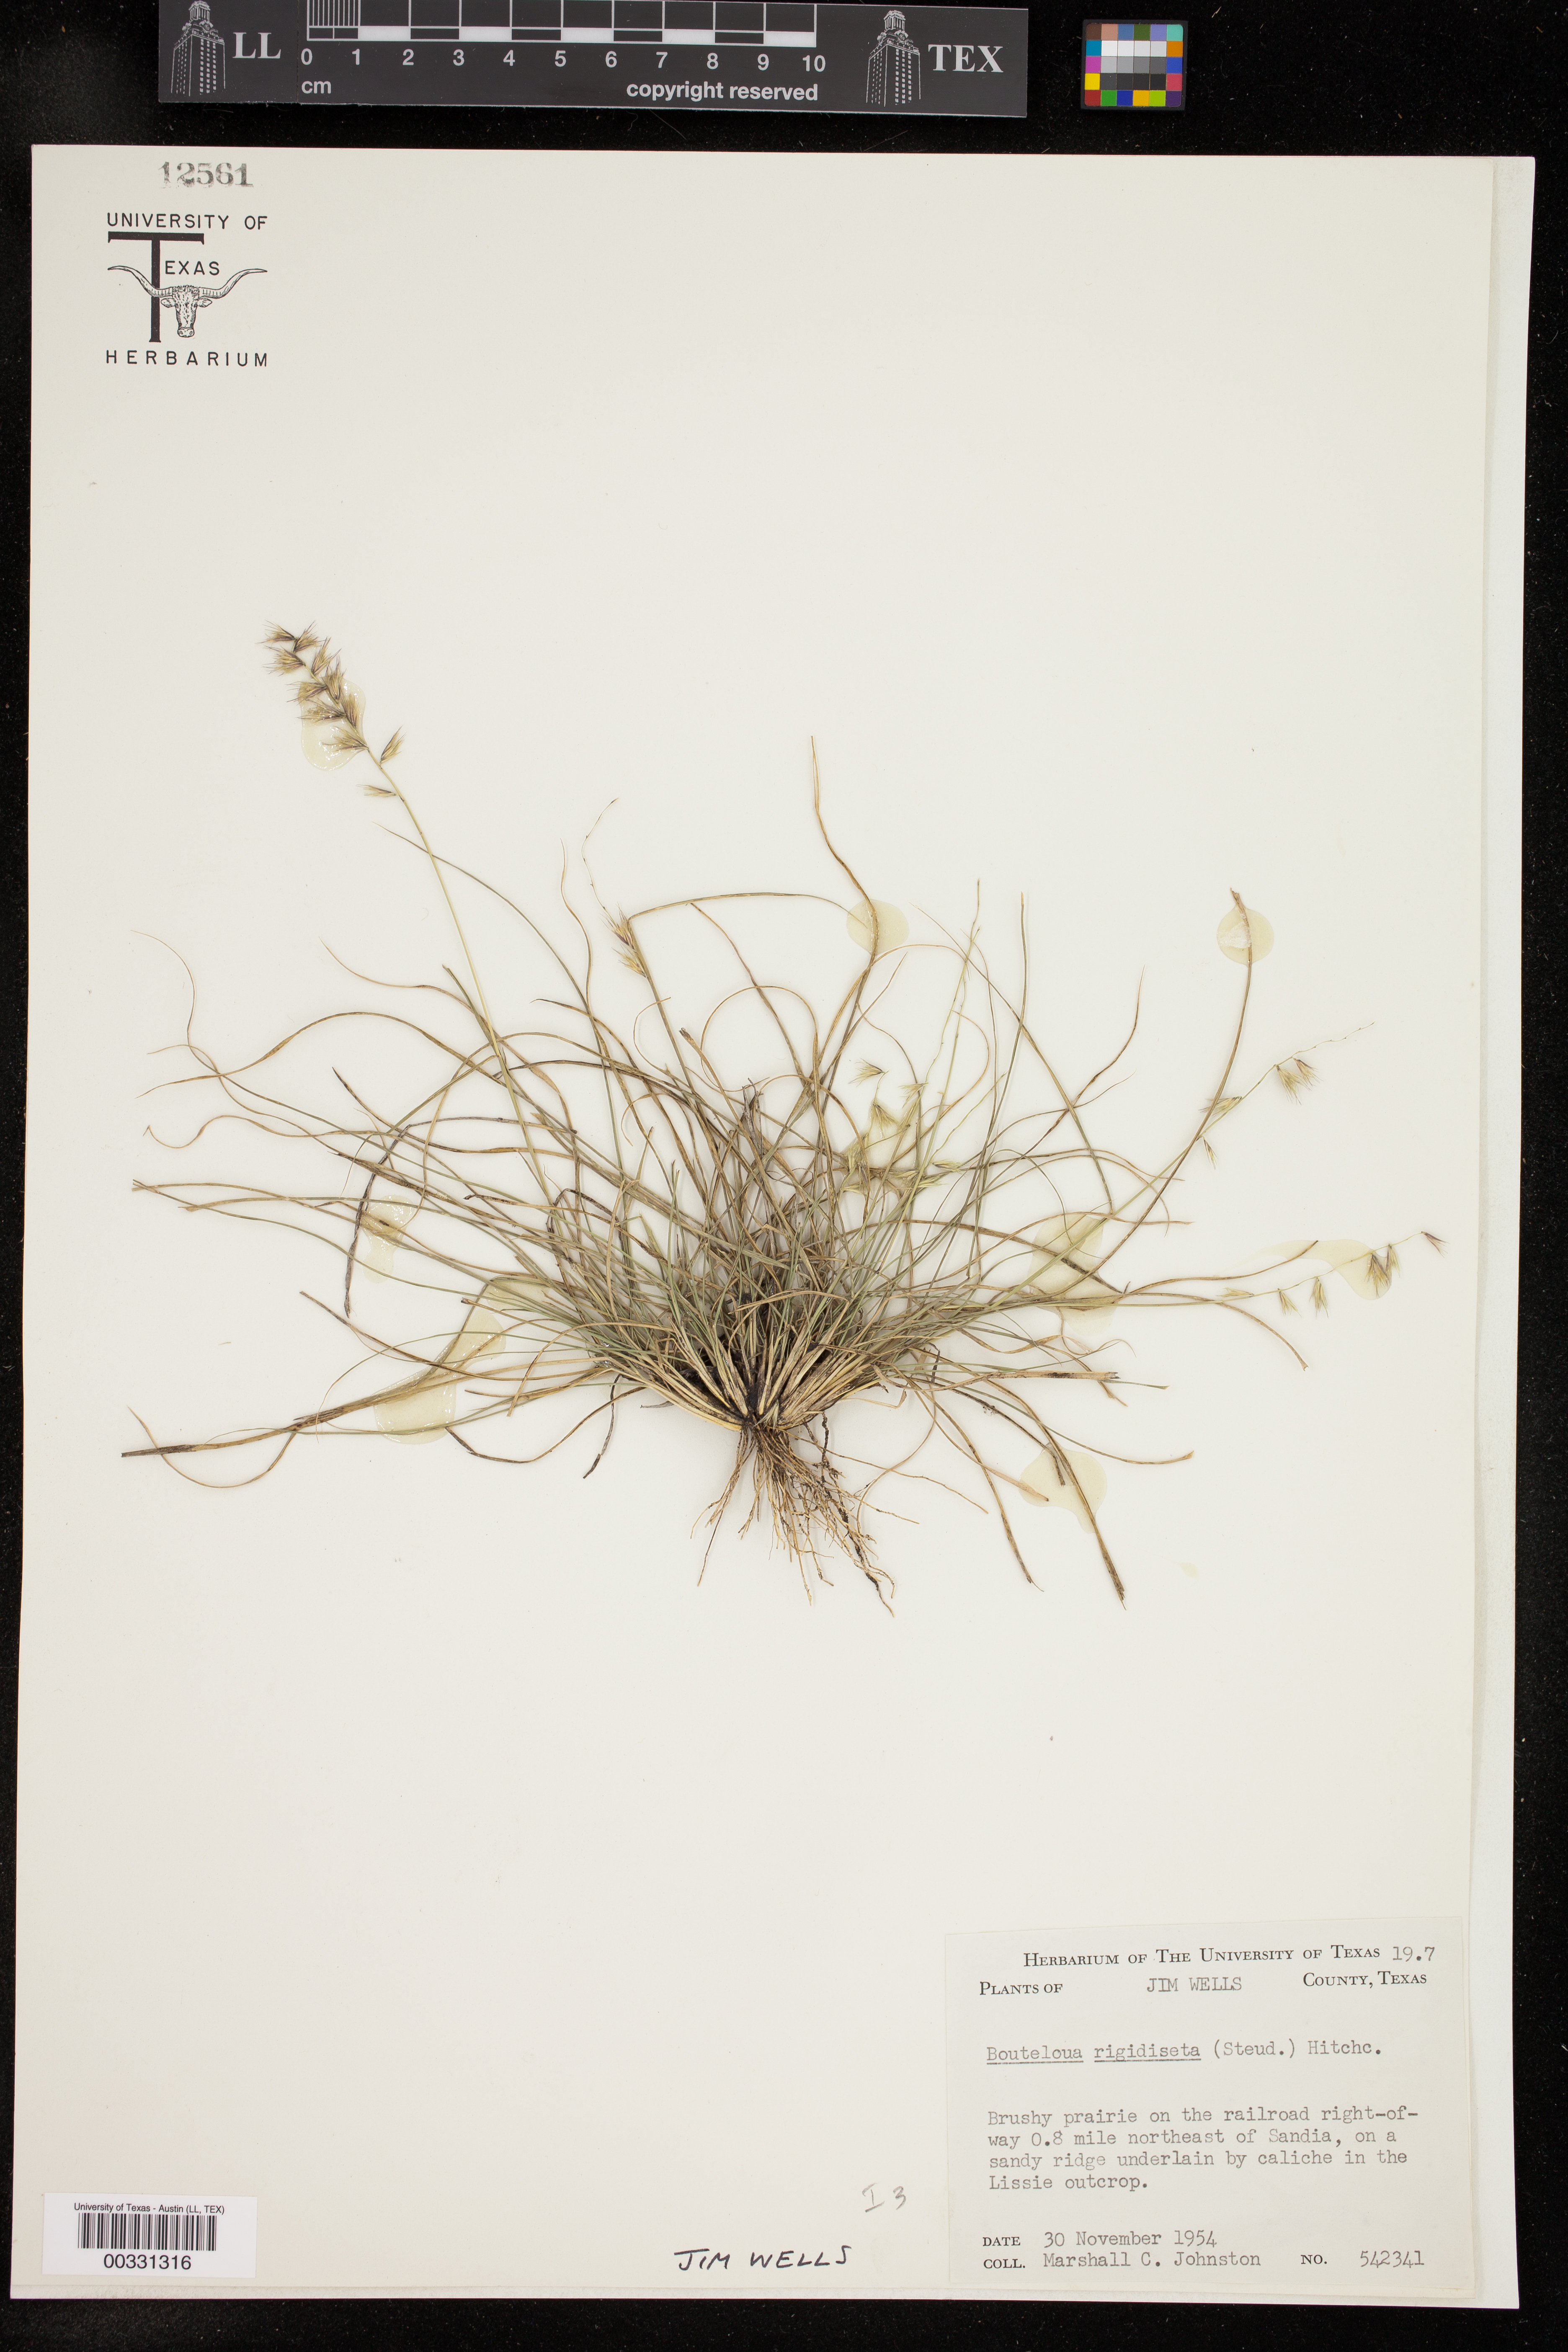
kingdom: Plantae
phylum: Tracheophyta
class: Liliopsida
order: Poales
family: Poaceae
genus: Bouteloua
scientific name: Bouteloua rigidiseta
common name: Texas grama
